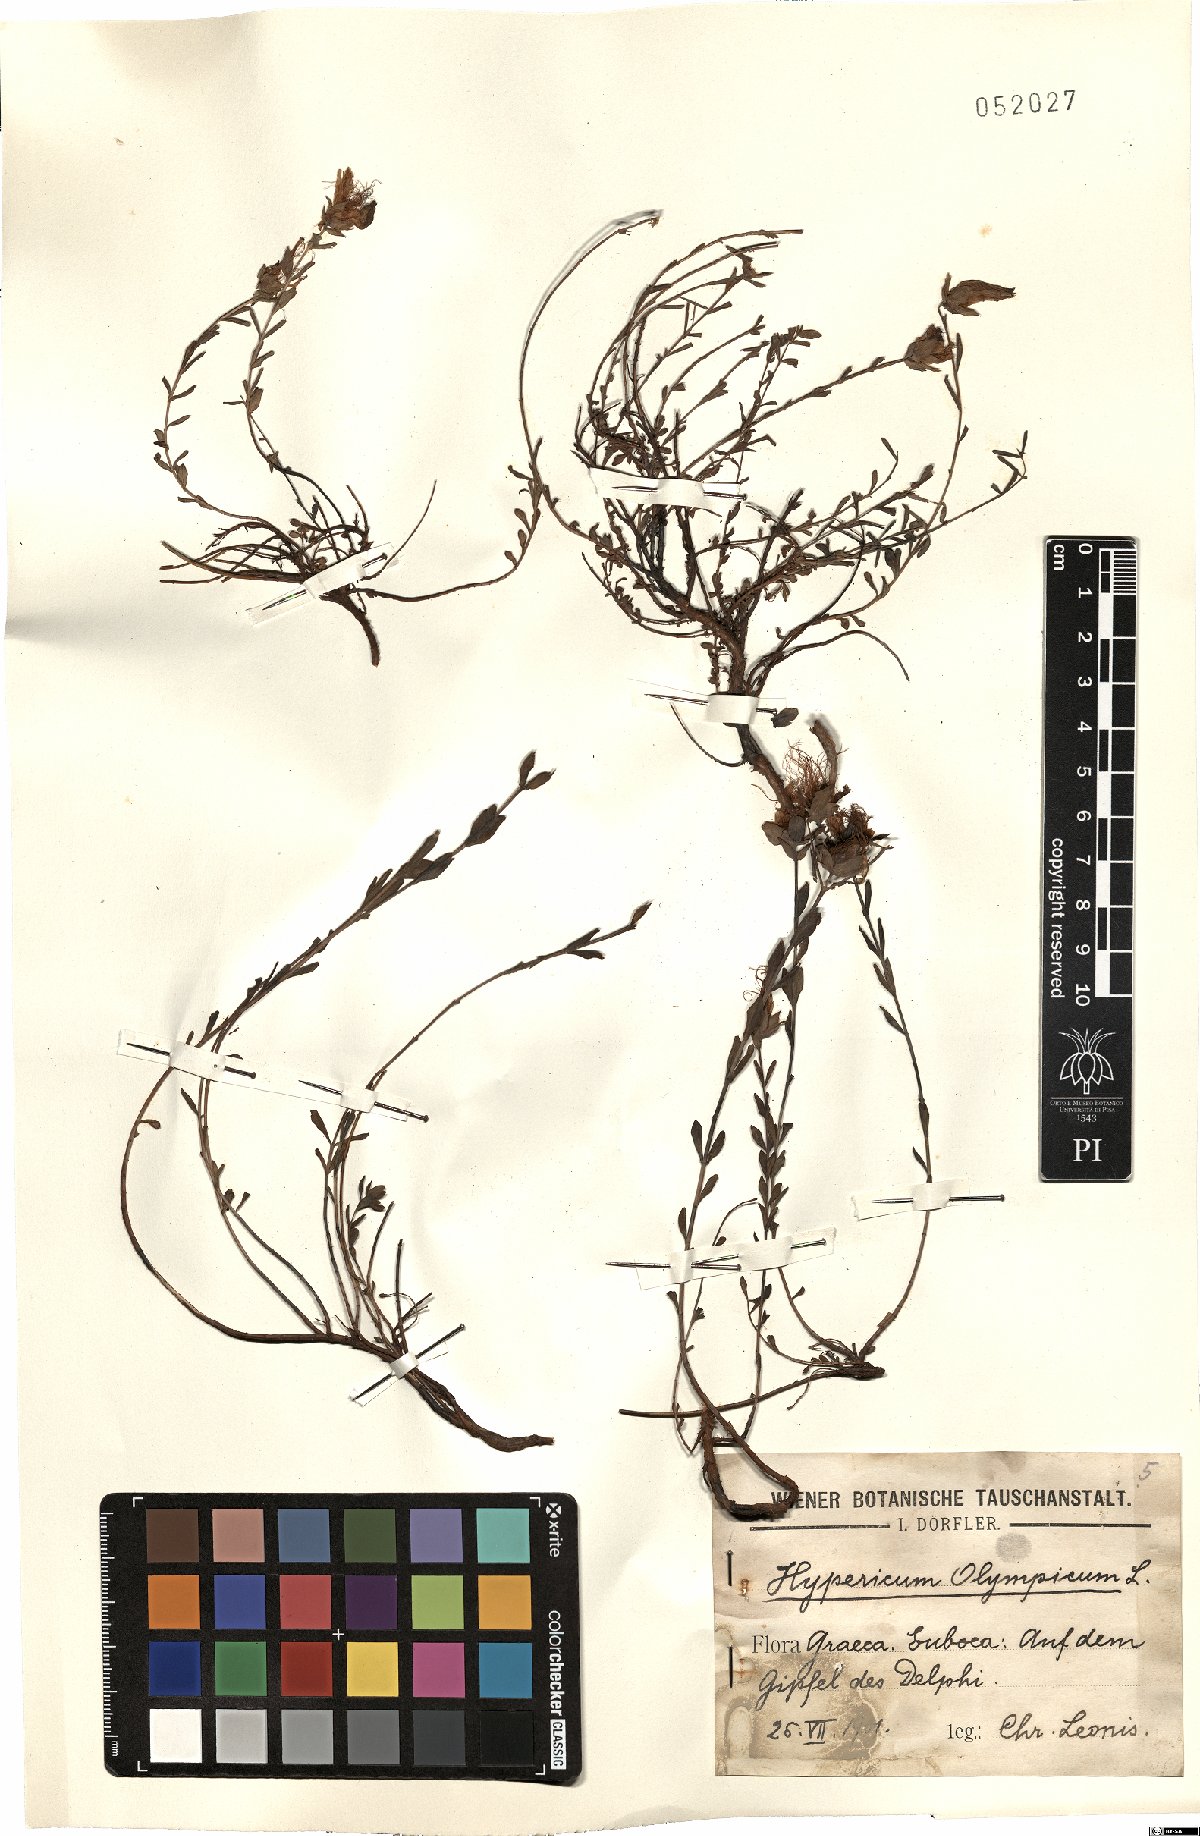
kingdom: Plantae
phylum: Tracheophyta
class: Magnoliopsida
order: Malpighiales
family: Hypericaceae
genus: Hypericum
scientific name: Hypericum olympicum
